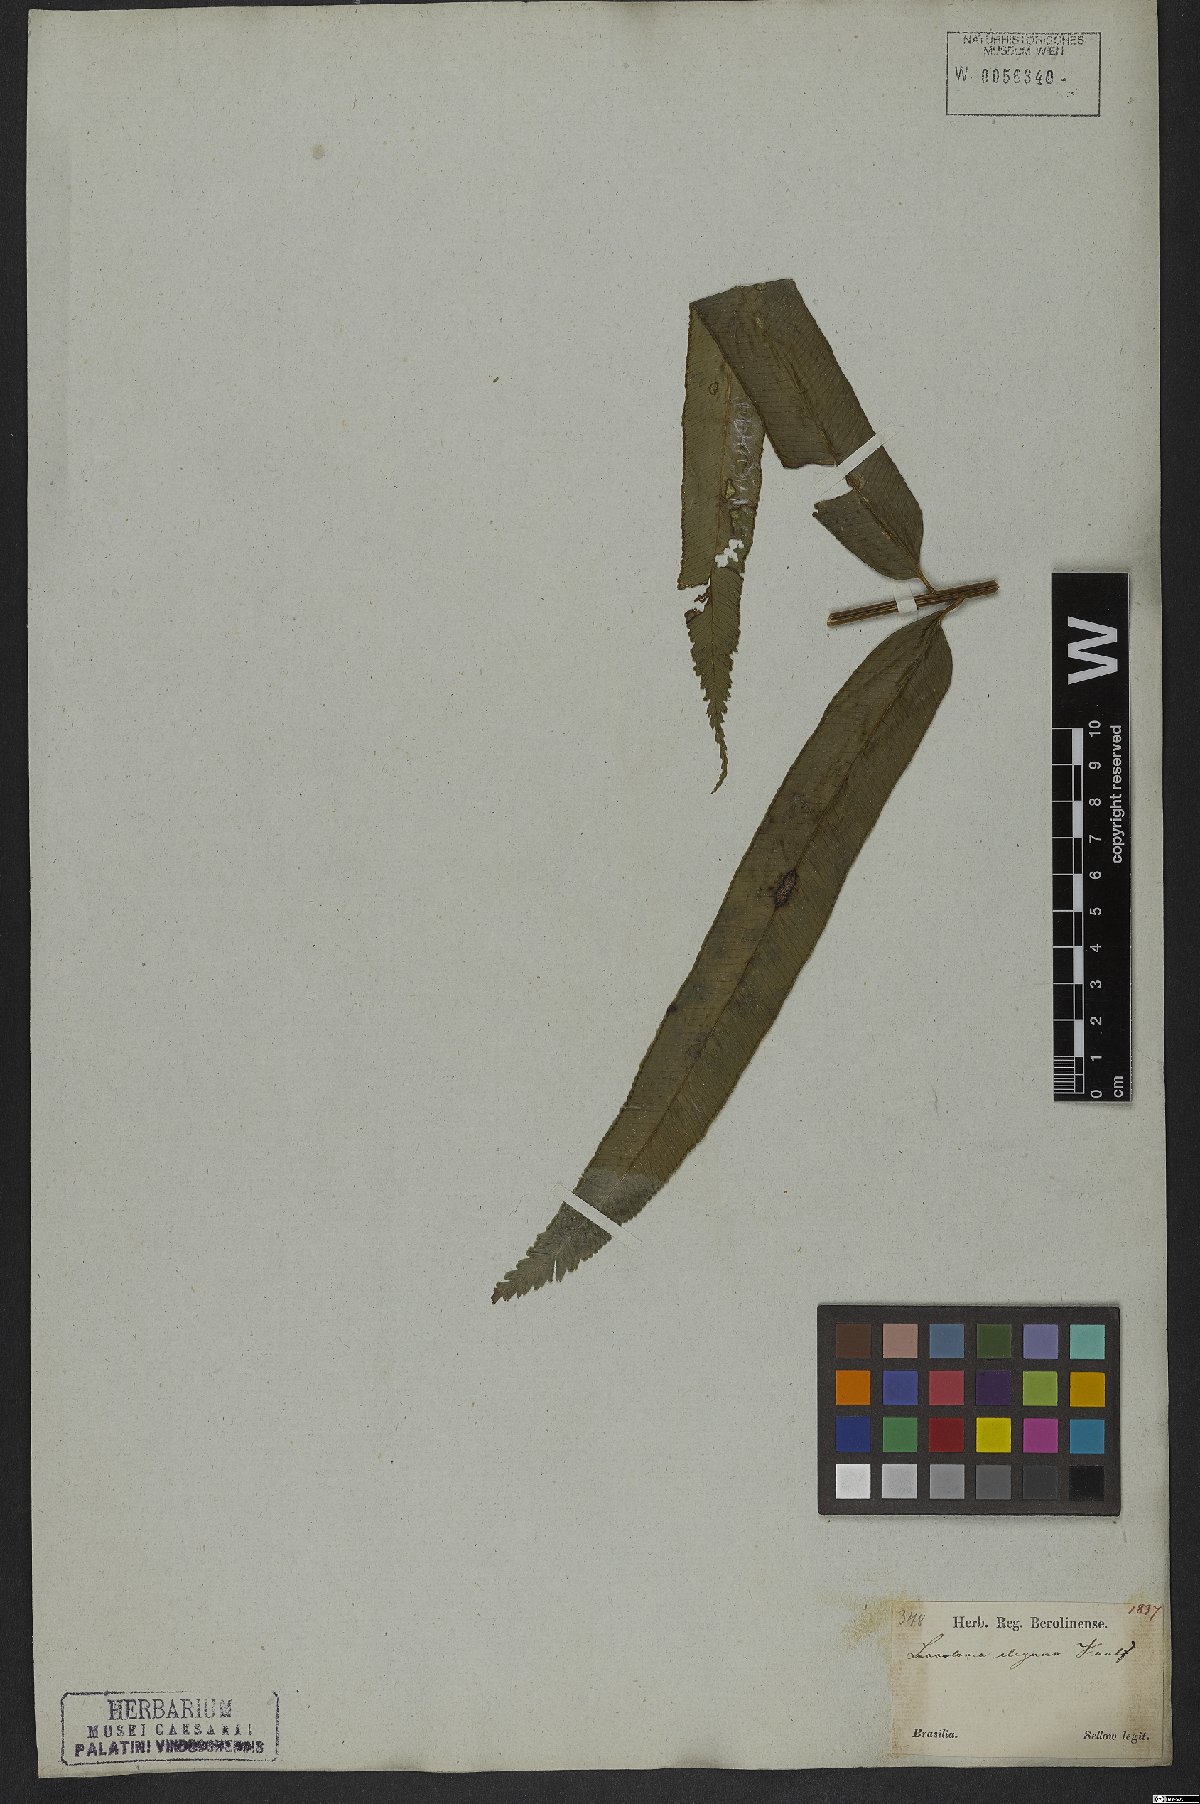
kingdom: Plantae
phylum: Tracheophyta
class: Polypodiopsida
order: Polypodiales
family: Saccolomataceae
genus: Saccoloma
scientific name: Saccoloma elegans
